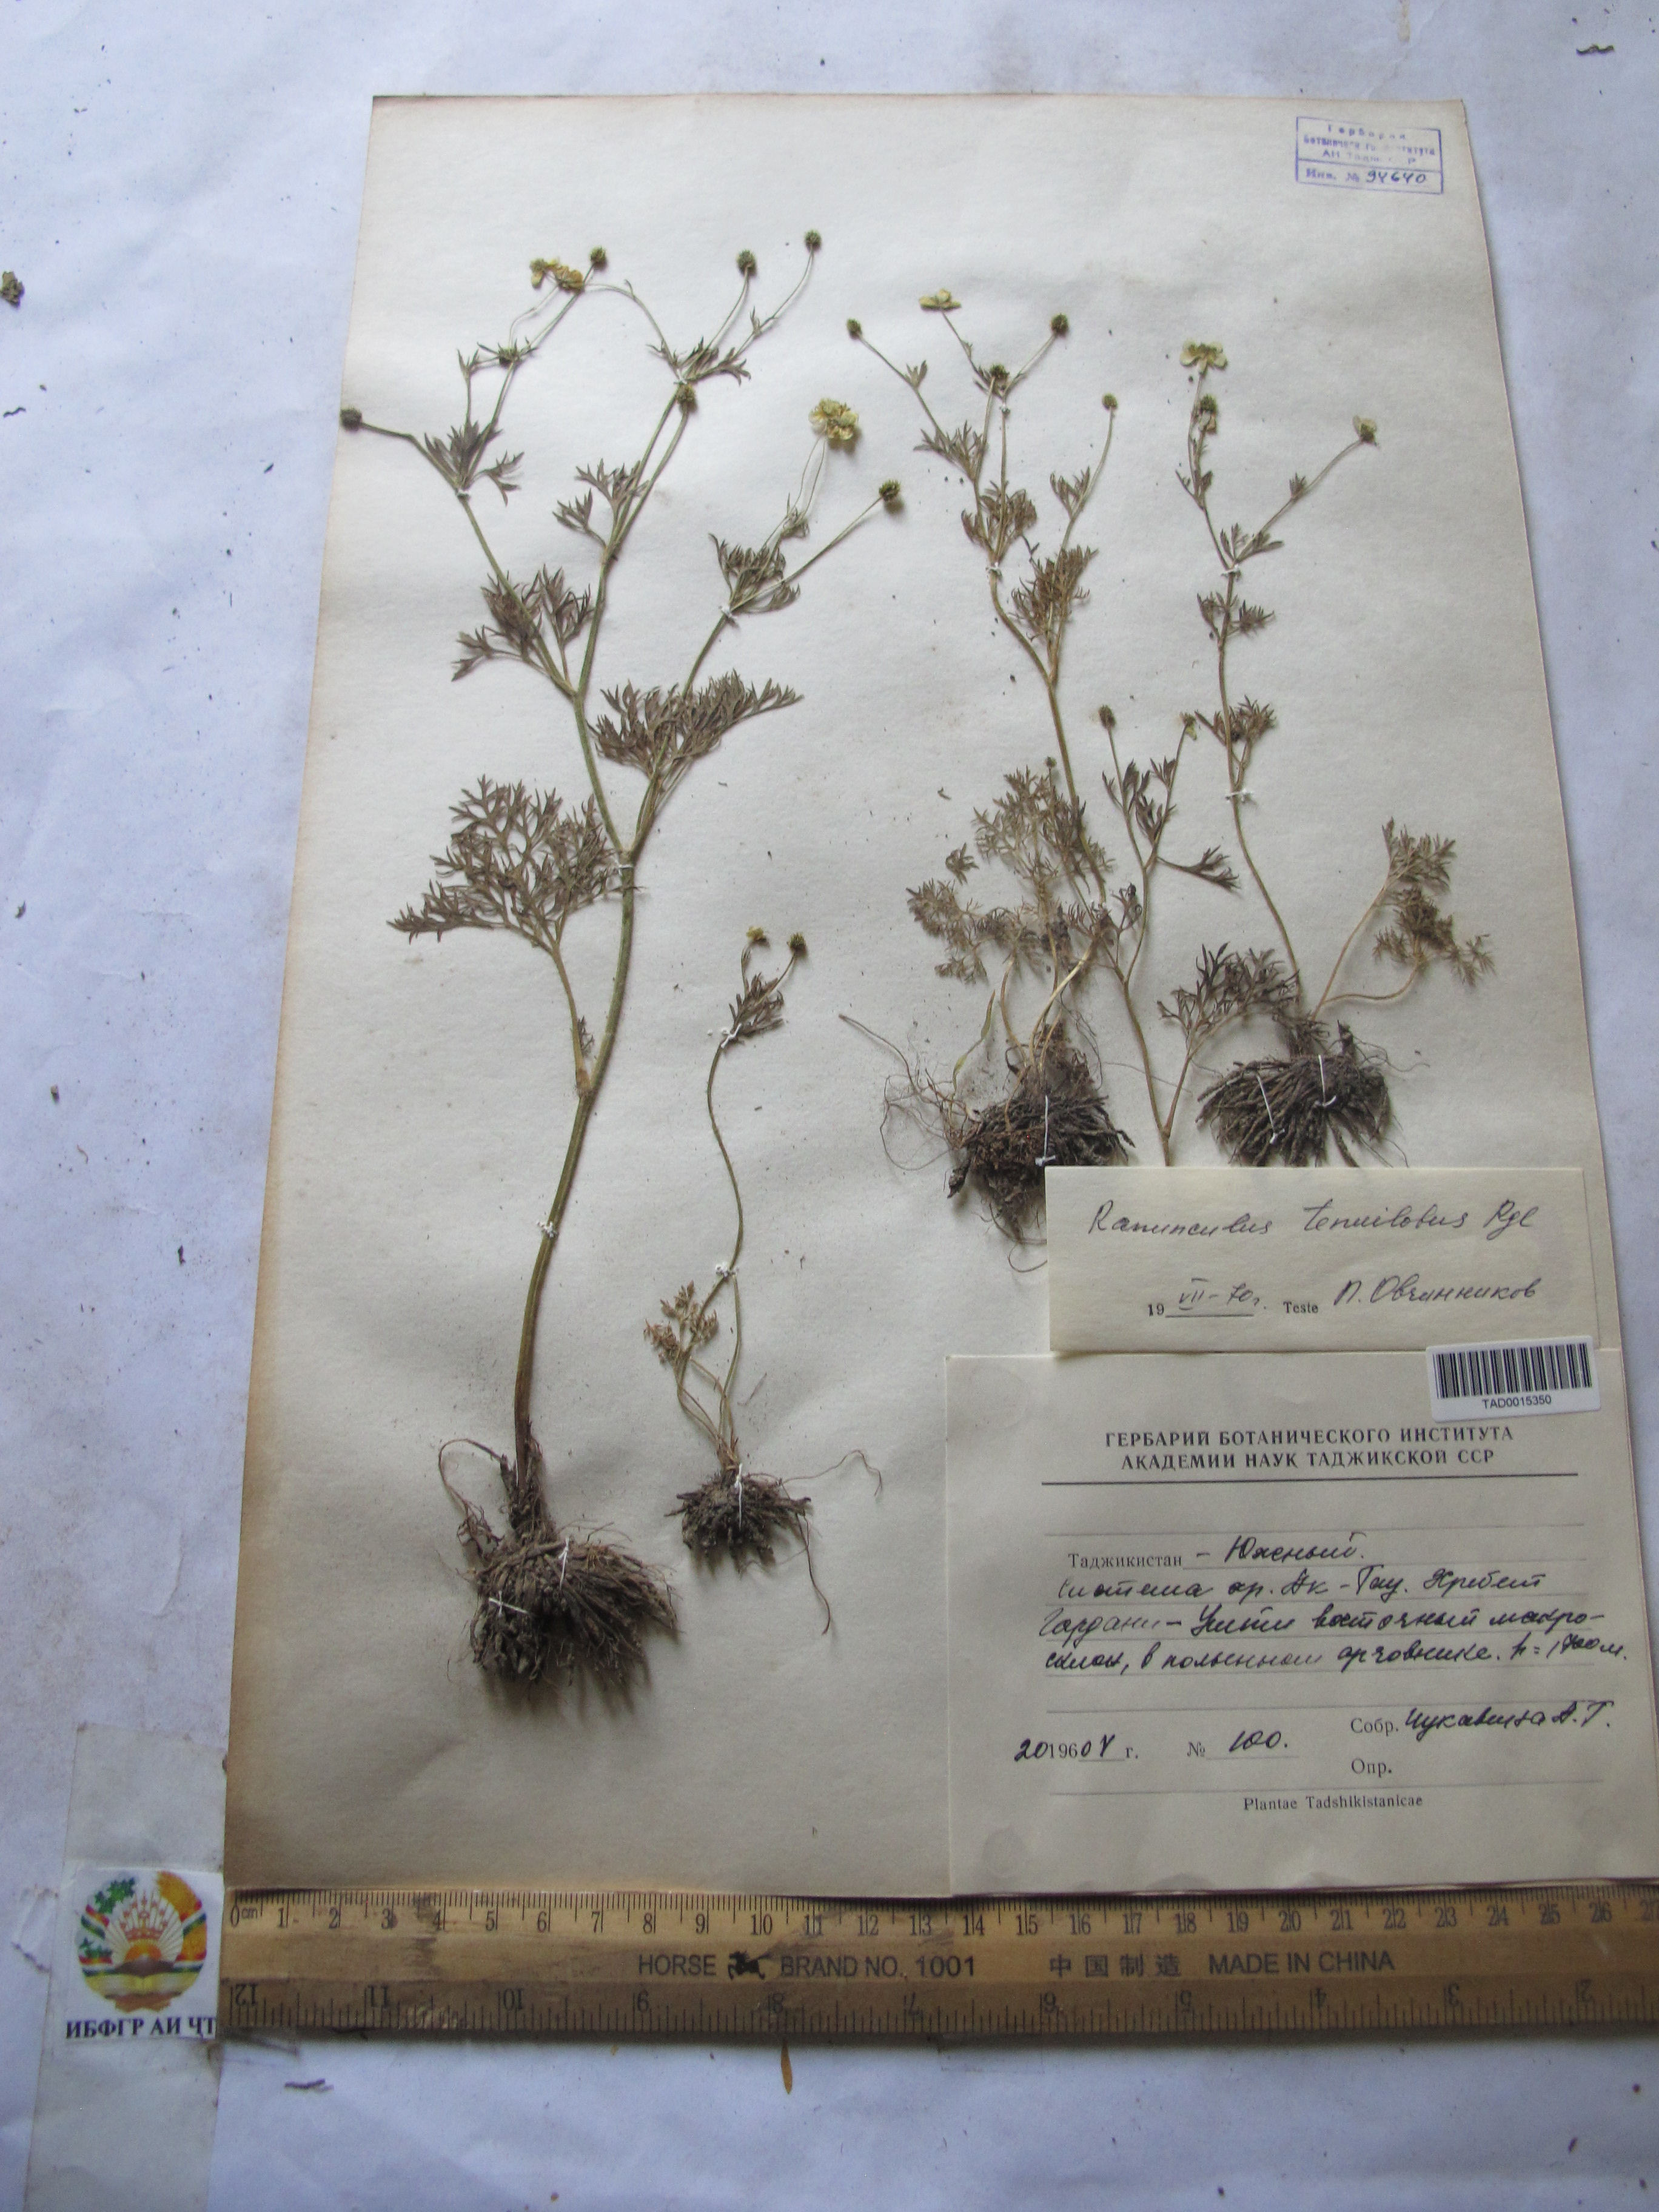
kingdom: Plantae
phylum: Tracheophyta
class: Magnoliopsida
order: Ranunculales
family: Ranunculaceae
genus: Ranunculus
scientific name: Ranunculus tenuilobus
